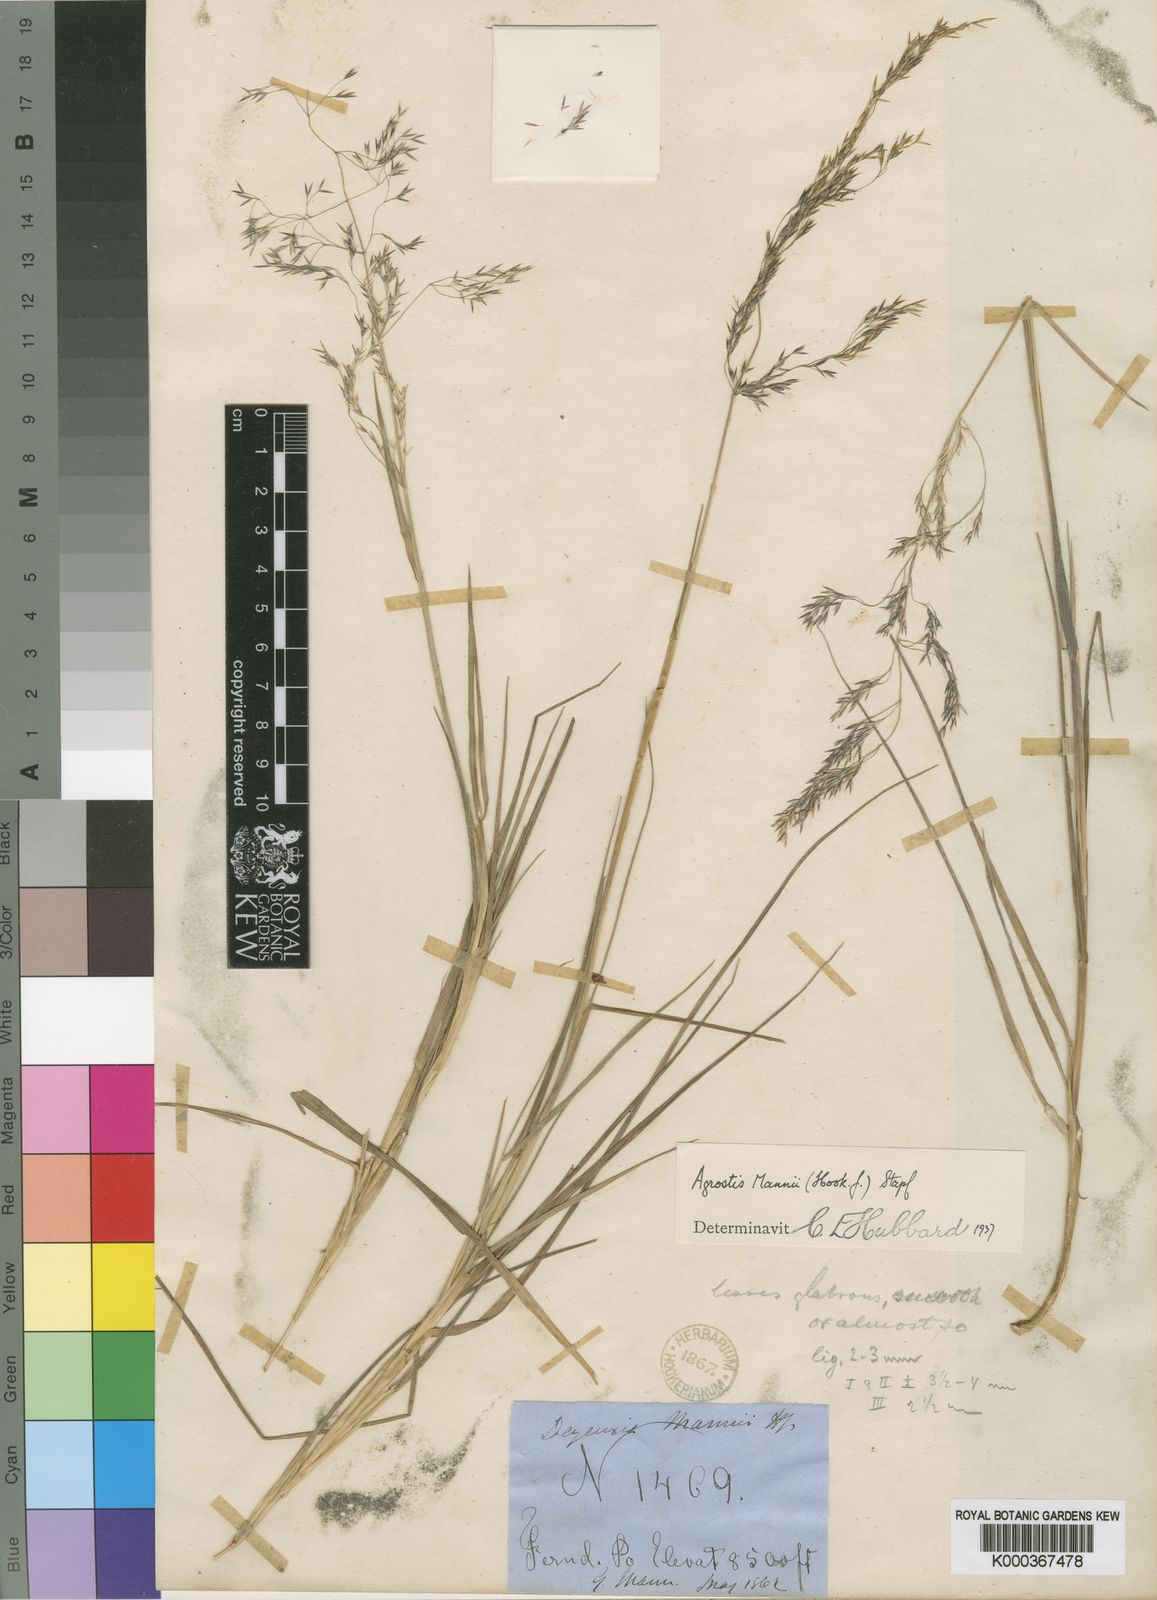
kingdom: Plantae
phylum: Tracheophyta
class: Liliopsida
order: Poales
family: Poaceae
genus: Agrostis
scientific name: Agrostis mannii
